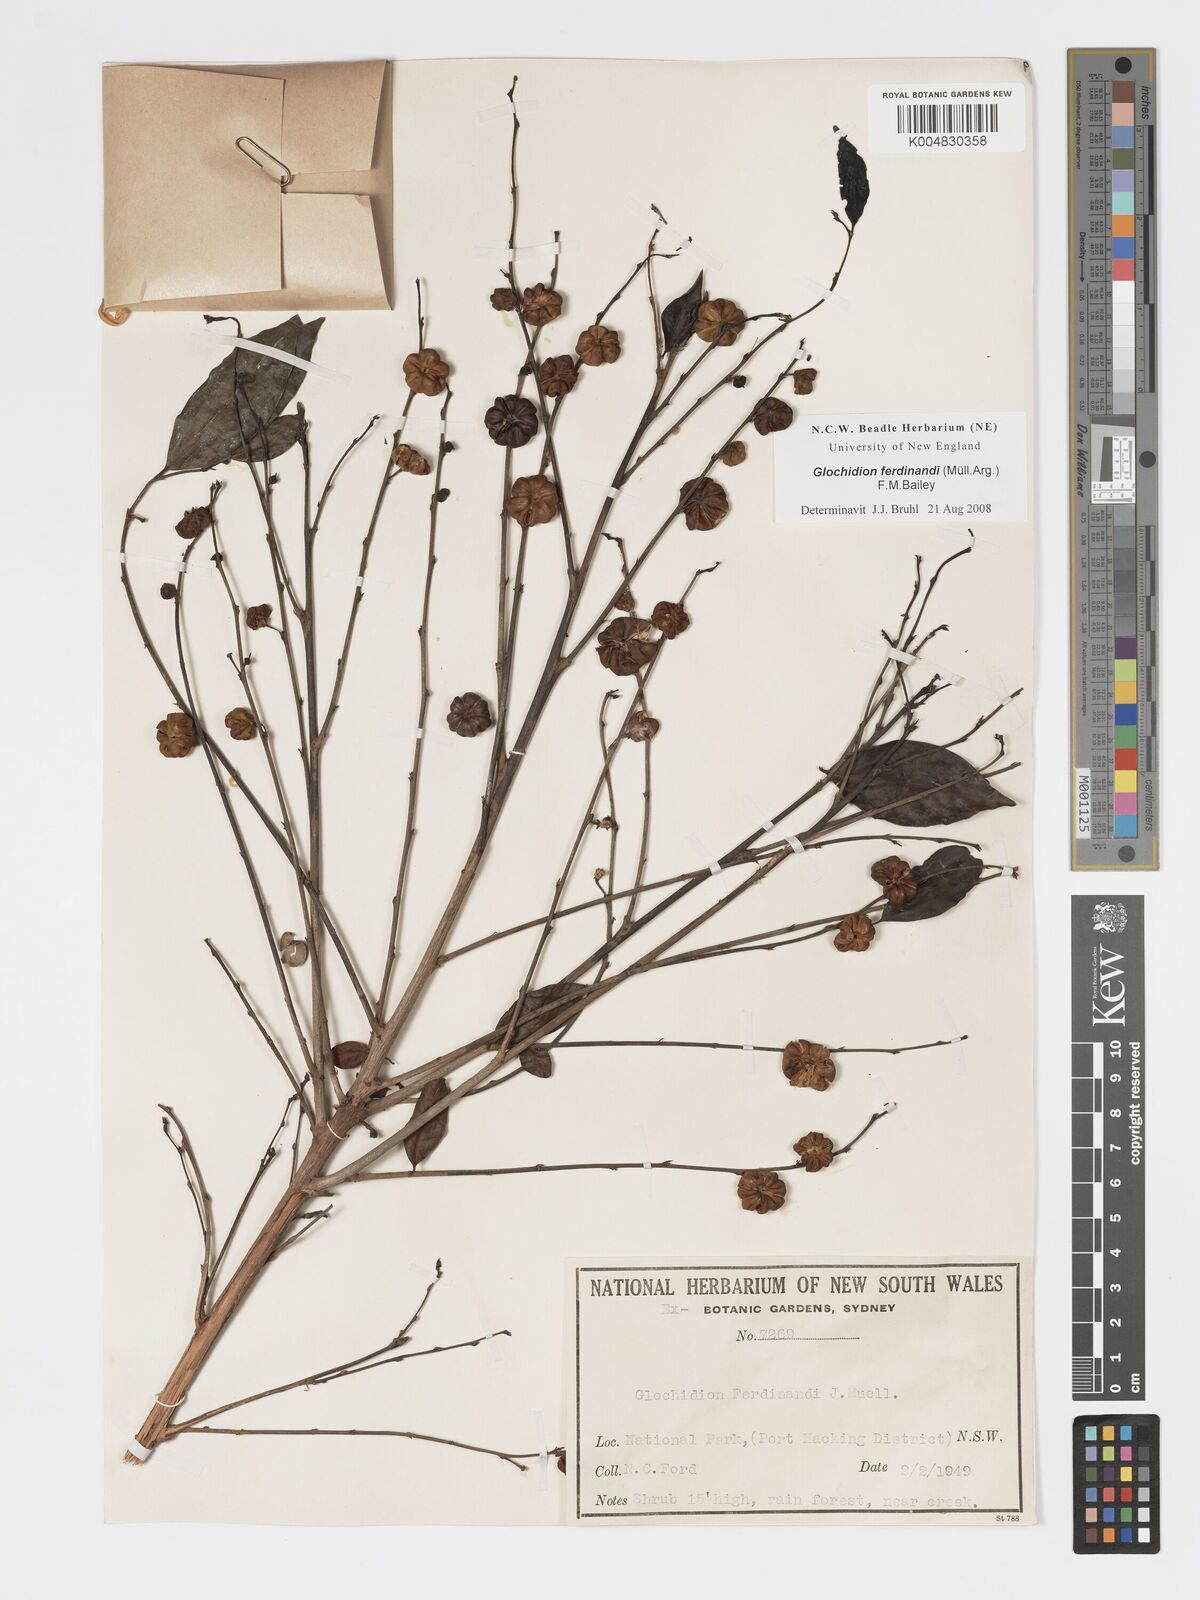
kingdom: Plantae
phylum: Tracheophyta
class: Magnoliopsida
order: Malpighiales
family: Phyllanthaceae
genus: Glochidion
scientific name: Glochidion ferdinandi
